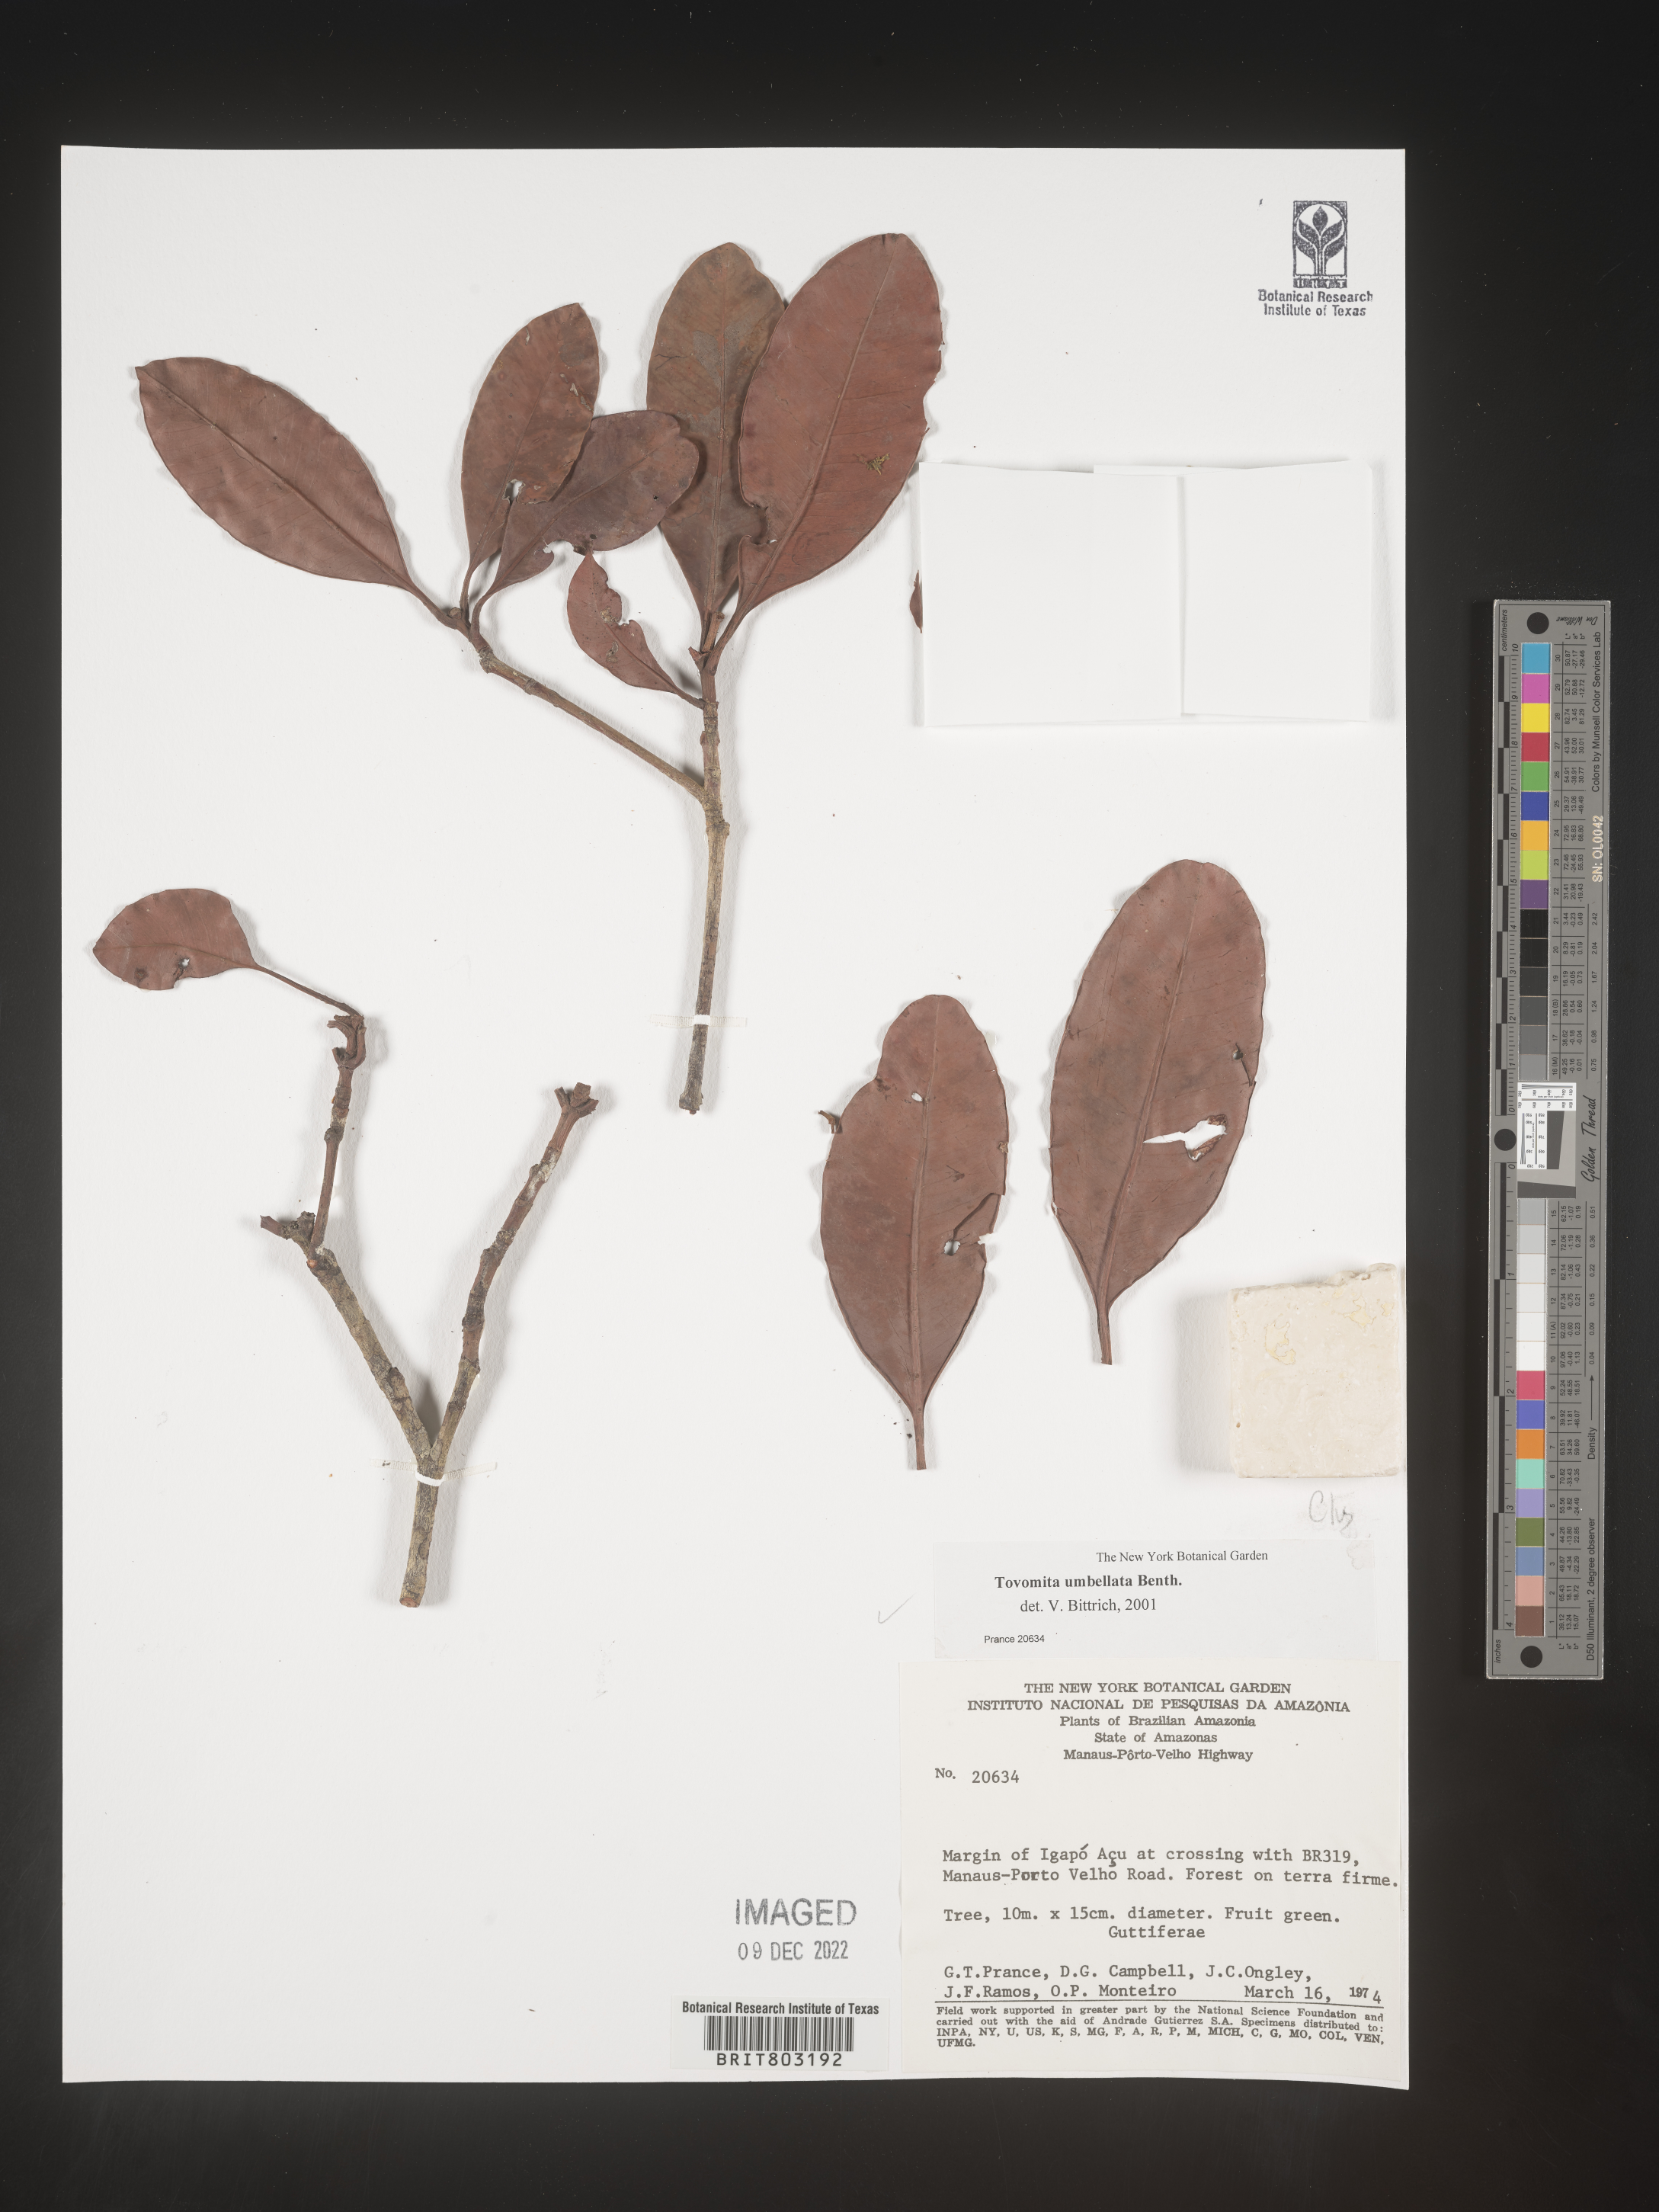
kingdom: Plantae
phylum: Tracheophyta
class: Magnoliopsida
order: Malpighiales
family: Clusiaceae
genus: Tovomita
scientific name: Tovomita
